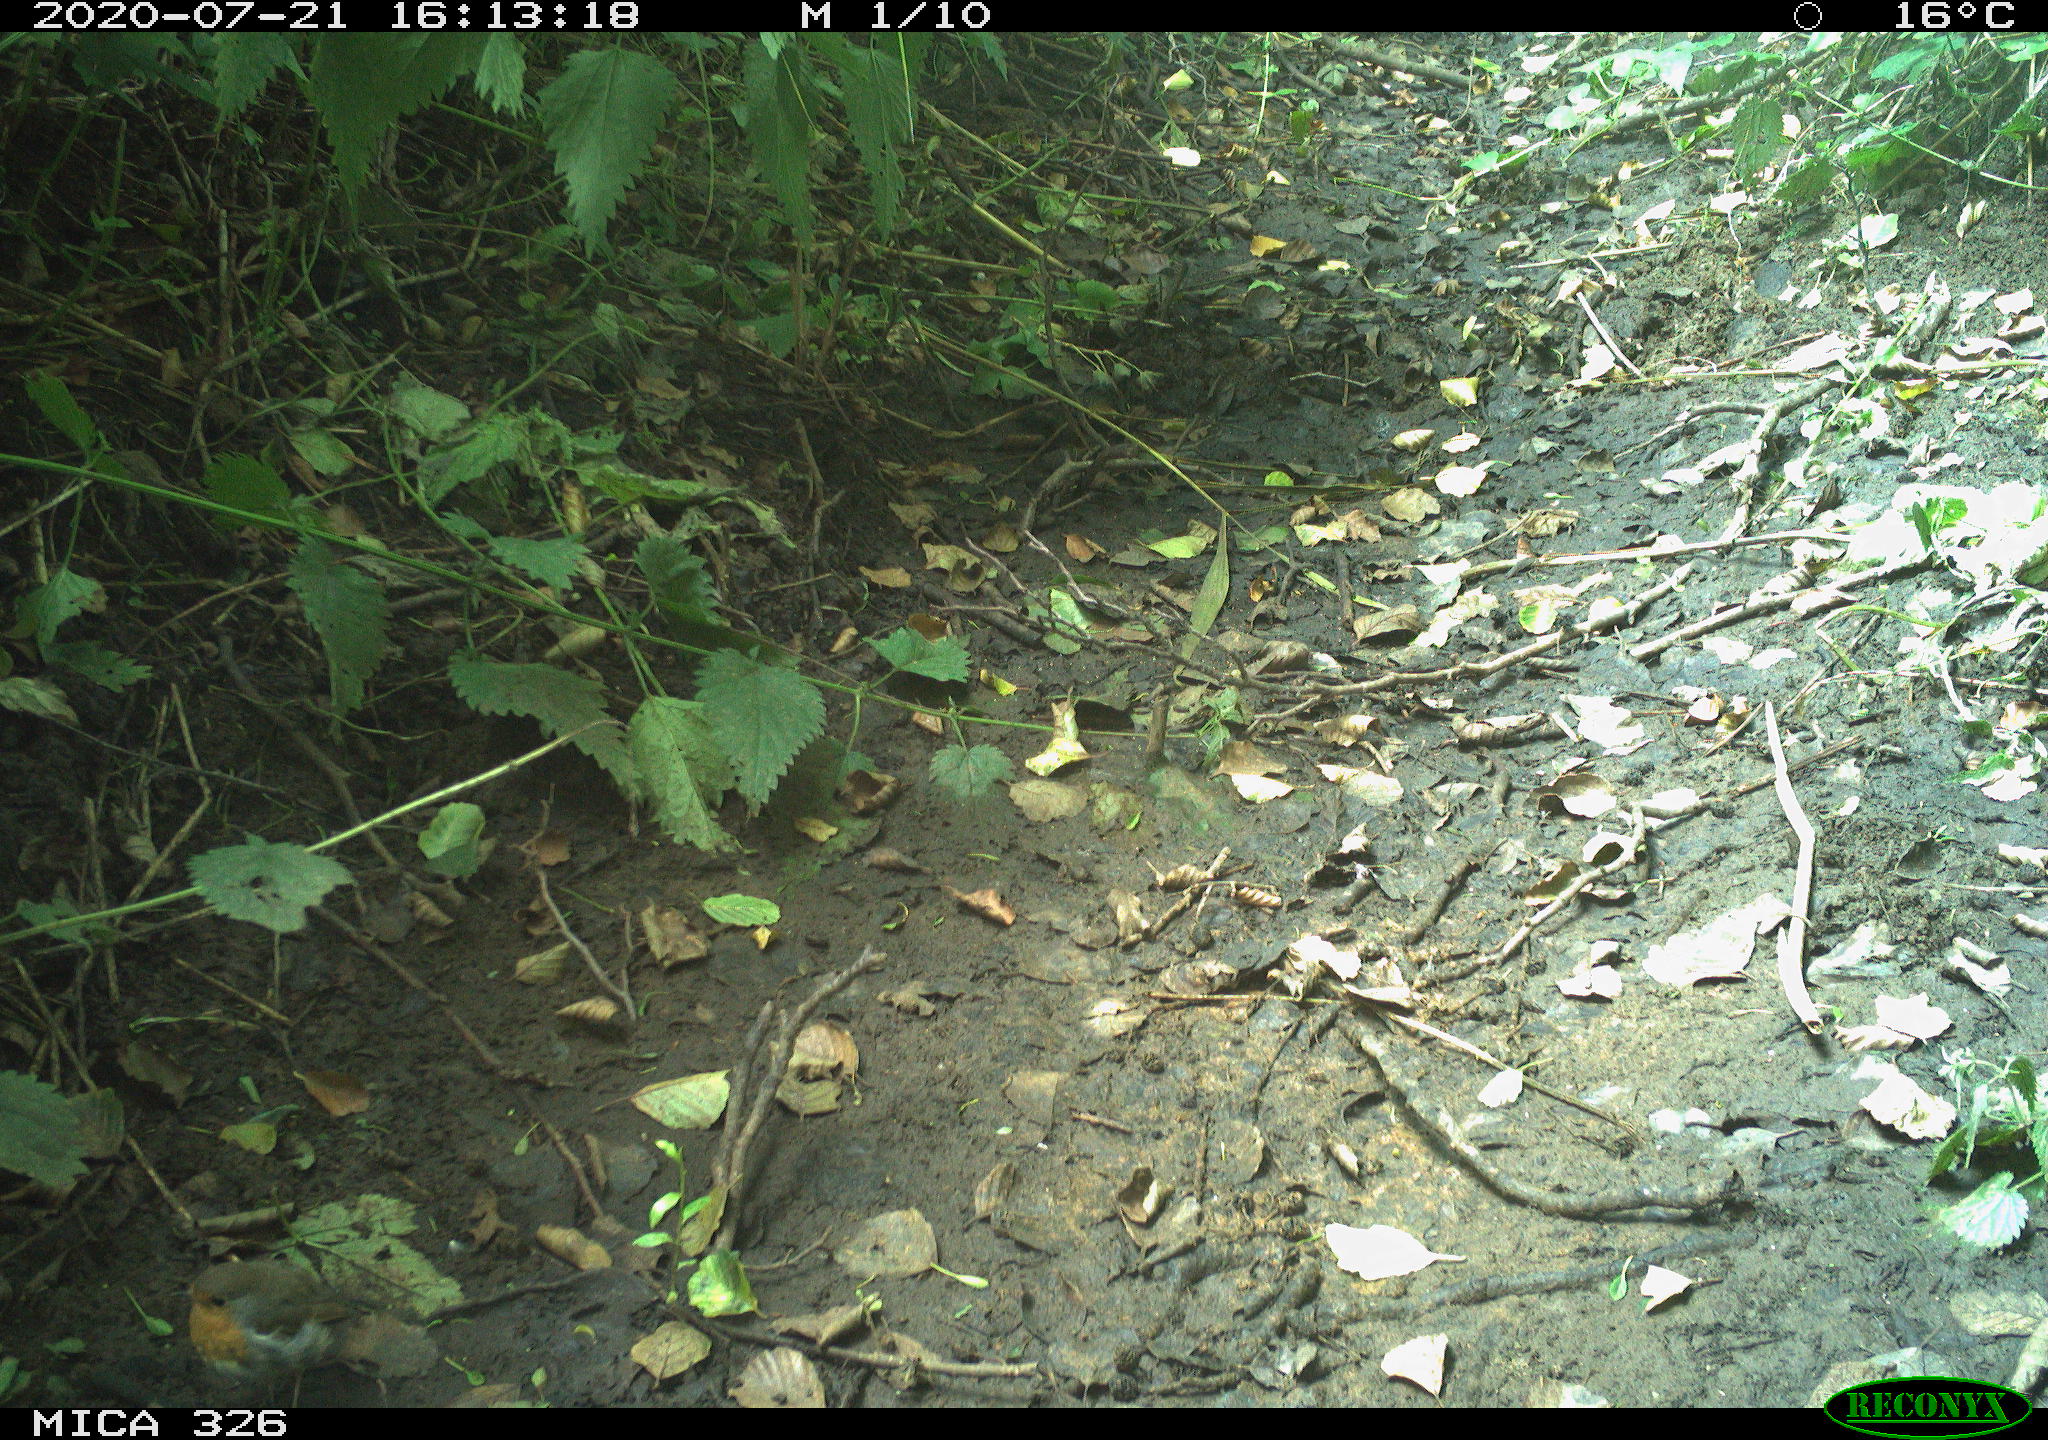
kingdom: Animalia
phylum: Chordata
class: Aves
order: Passeriformes
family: Muscicapidae
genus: Erithacus
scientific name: Erithacus rubecula
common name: European robin
